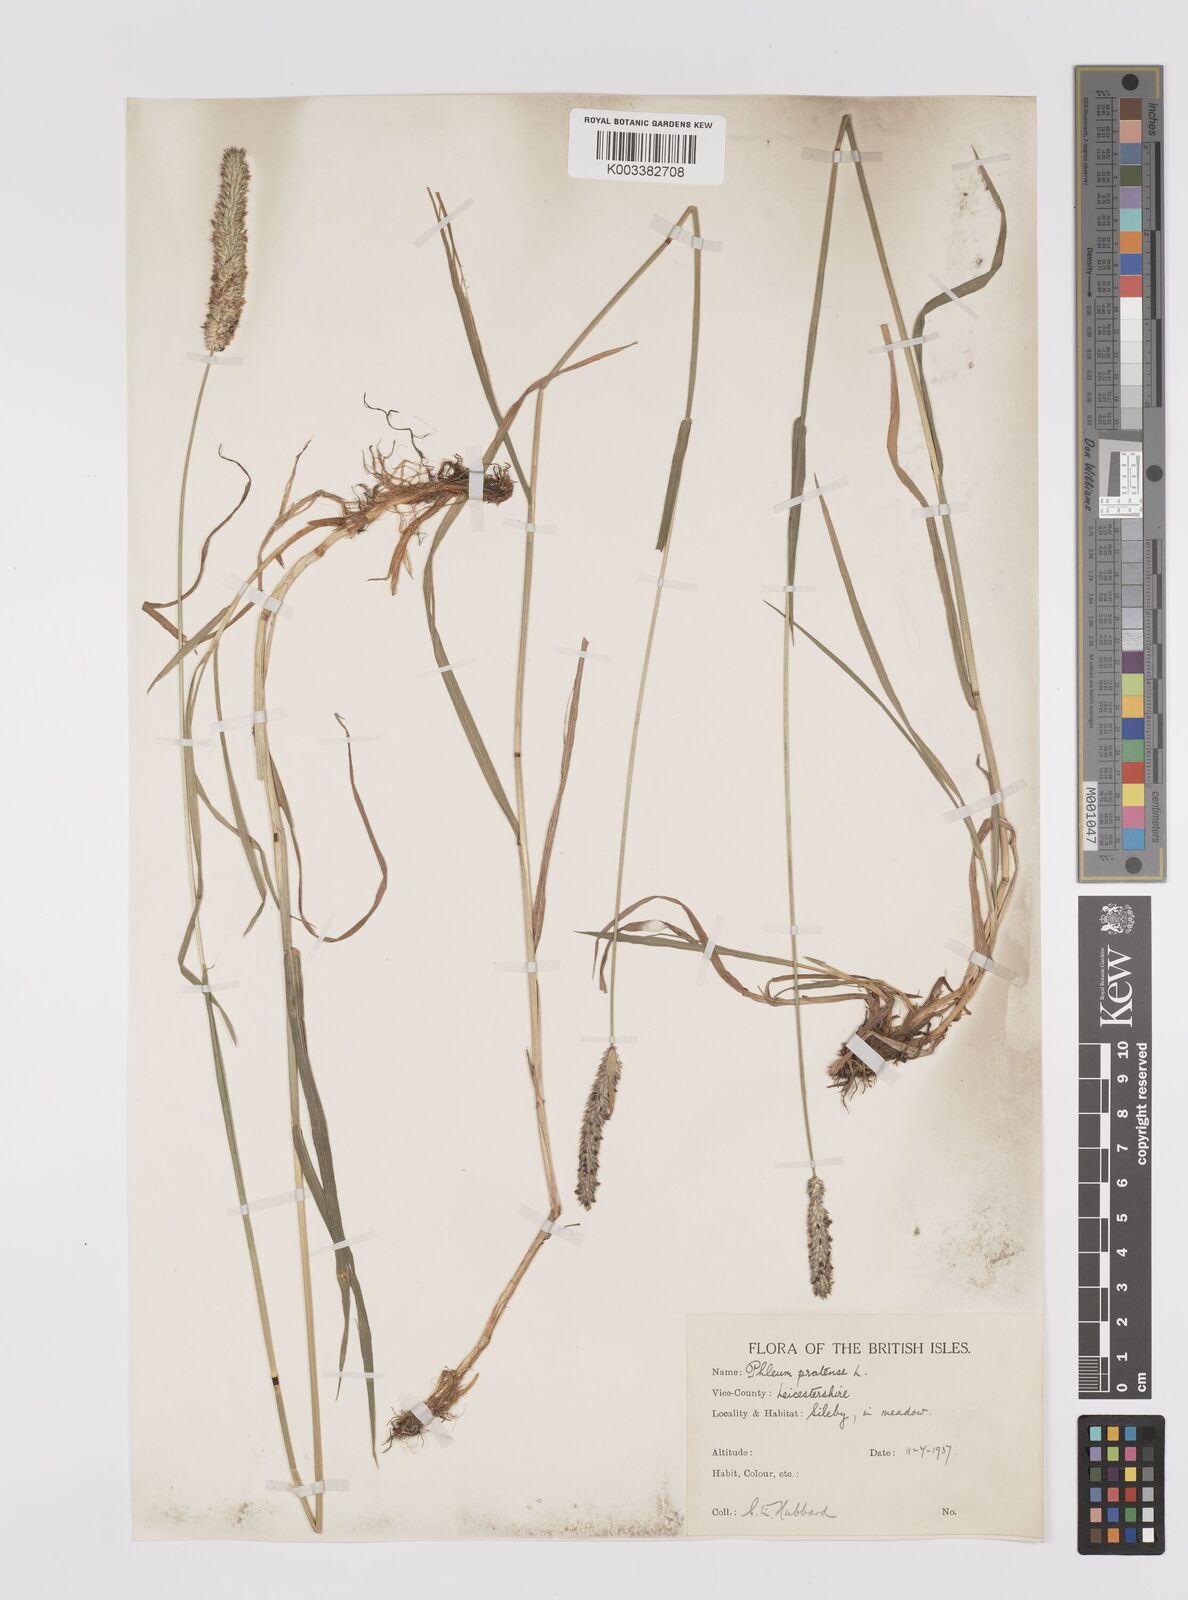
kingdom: Plantae
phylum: Tracheophyta
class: Liliopsida
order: Poales
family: Poaceae
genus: Phleum
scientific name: Phleum pratense
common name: Timothy grass
